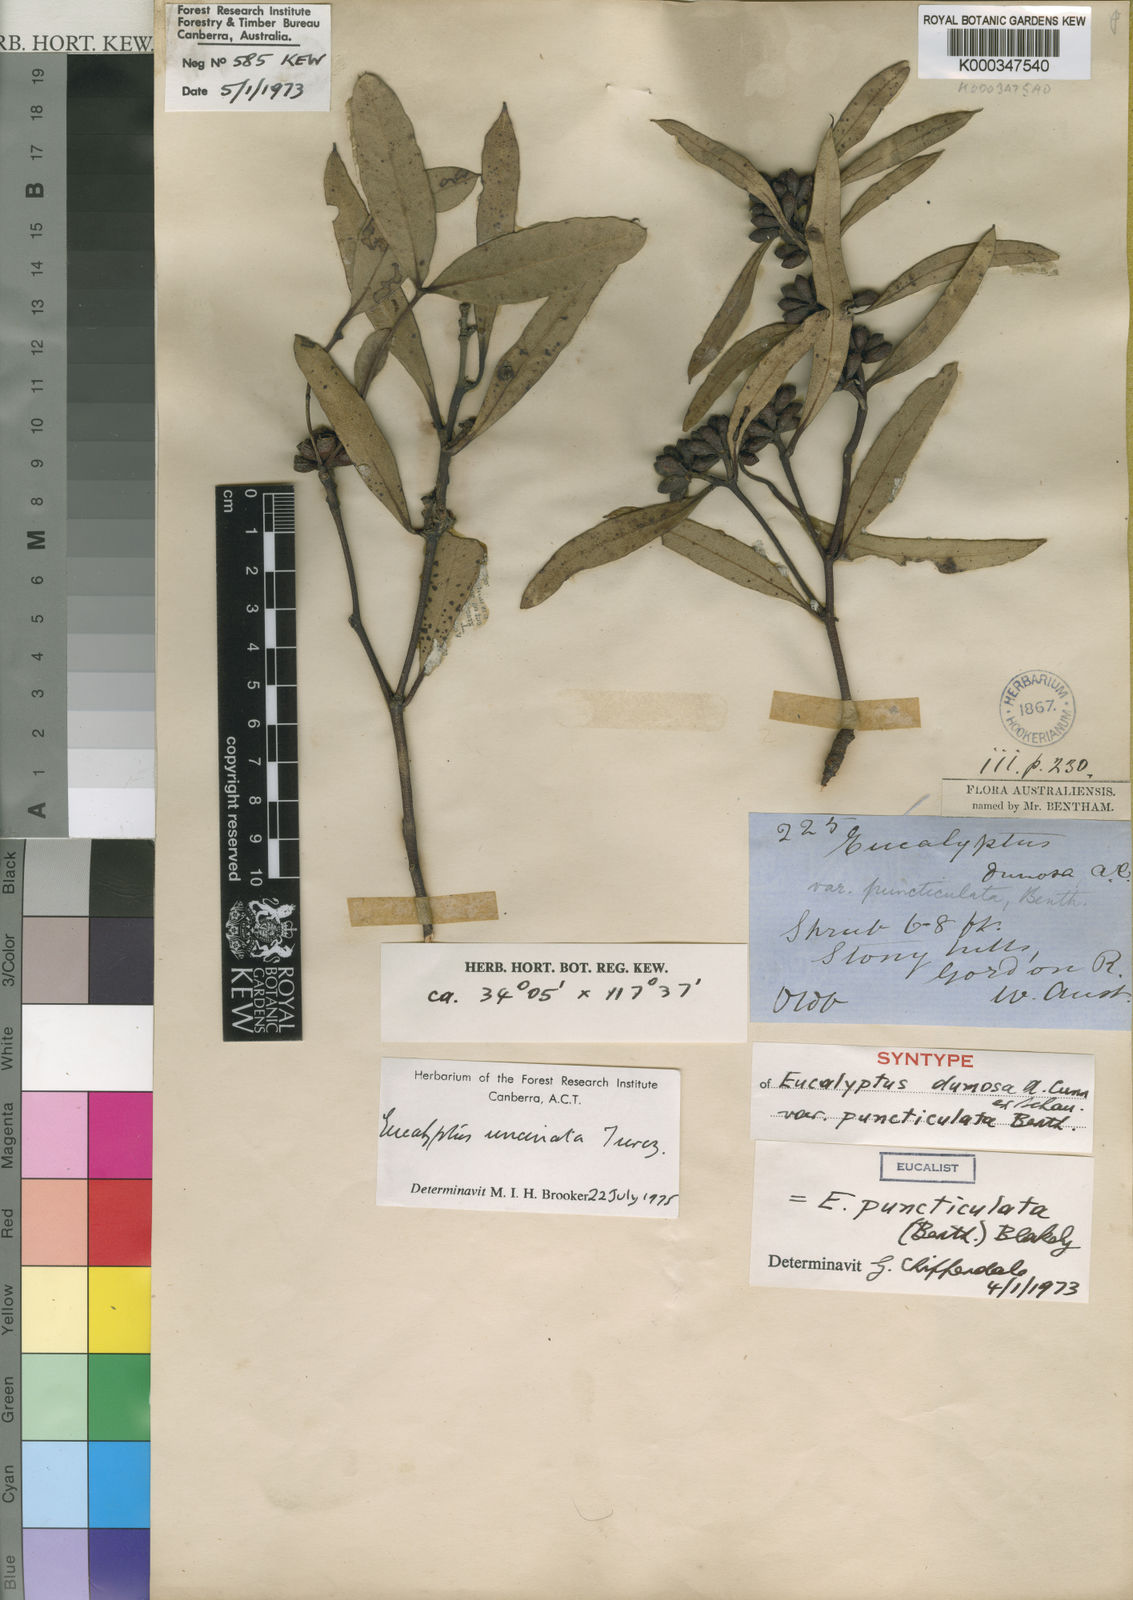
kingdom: Plantae
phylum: Tracheophyta
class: Magnoliopsida
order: Myrtales
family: Myrtaceae
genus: Eucalyptus
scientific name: Eucalyptus uncinata
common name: Hooked-leaved mallee
